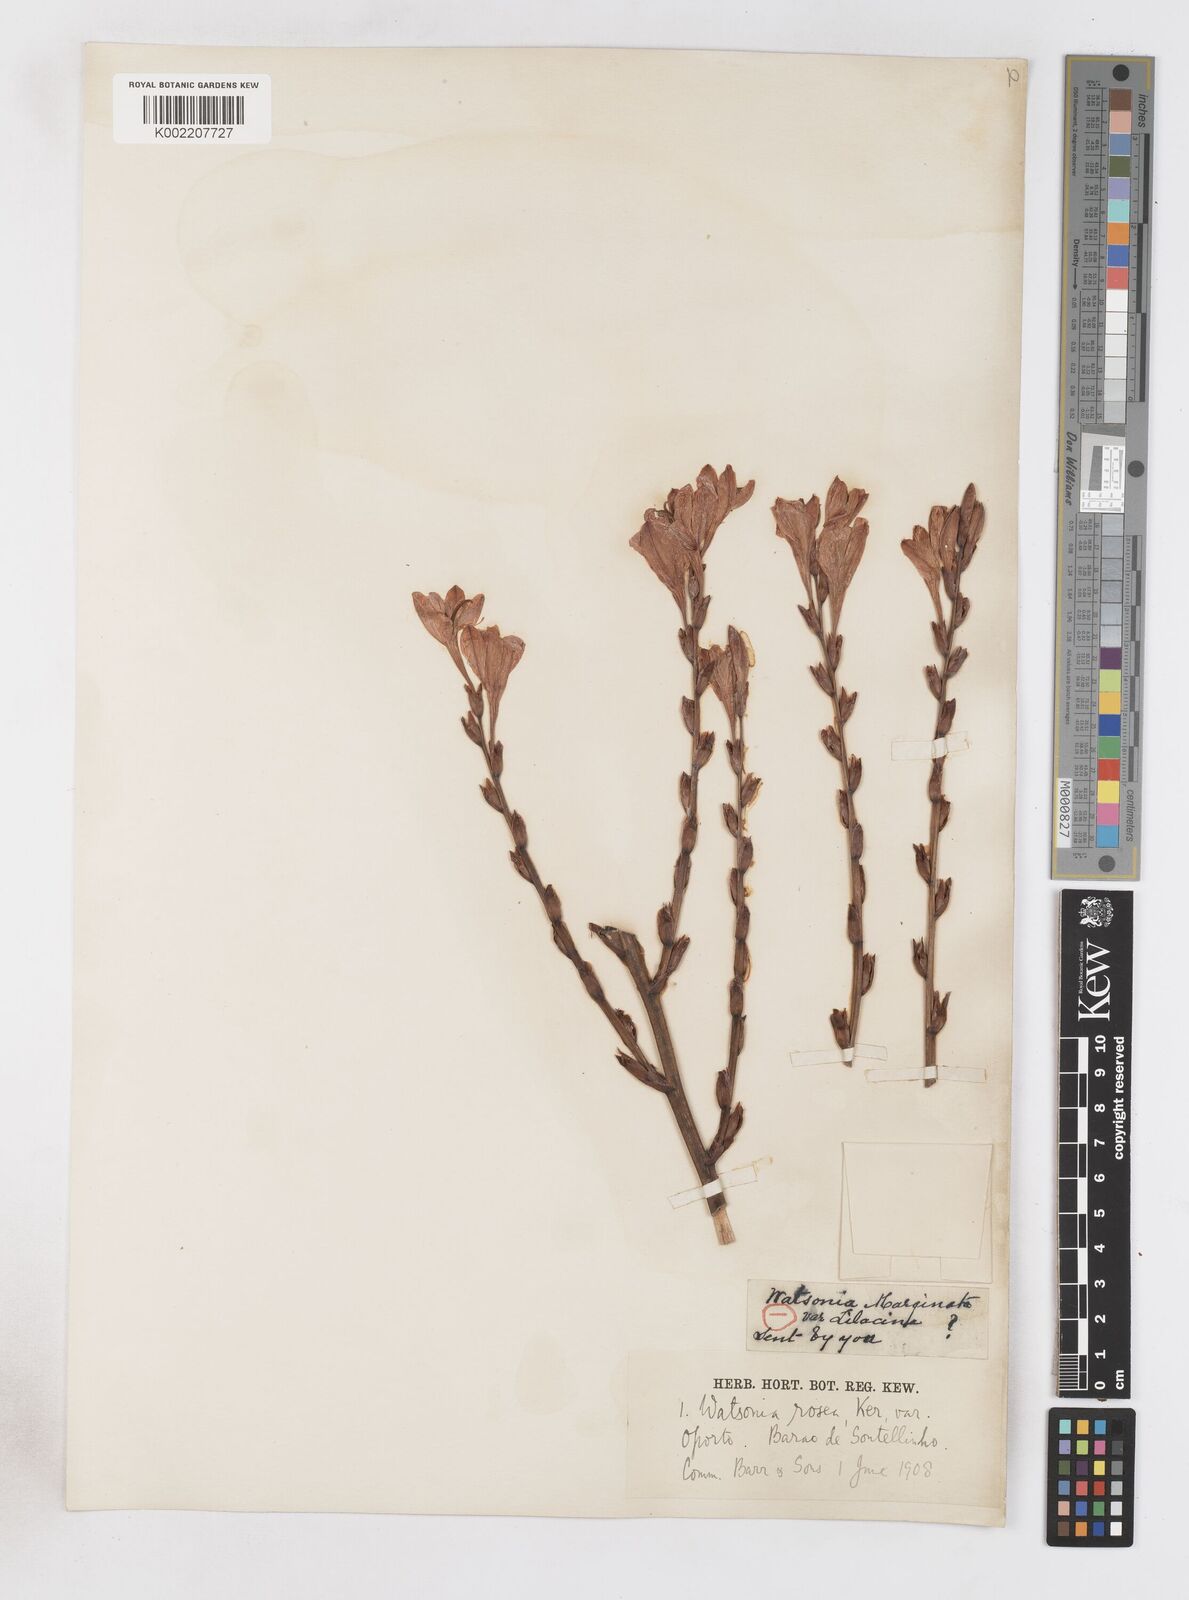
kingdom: Plantae
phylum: Tracheophyta
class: Liliopsida
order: Asparagales
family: Iridaceae
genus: Watsonia
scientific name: Watsonia
